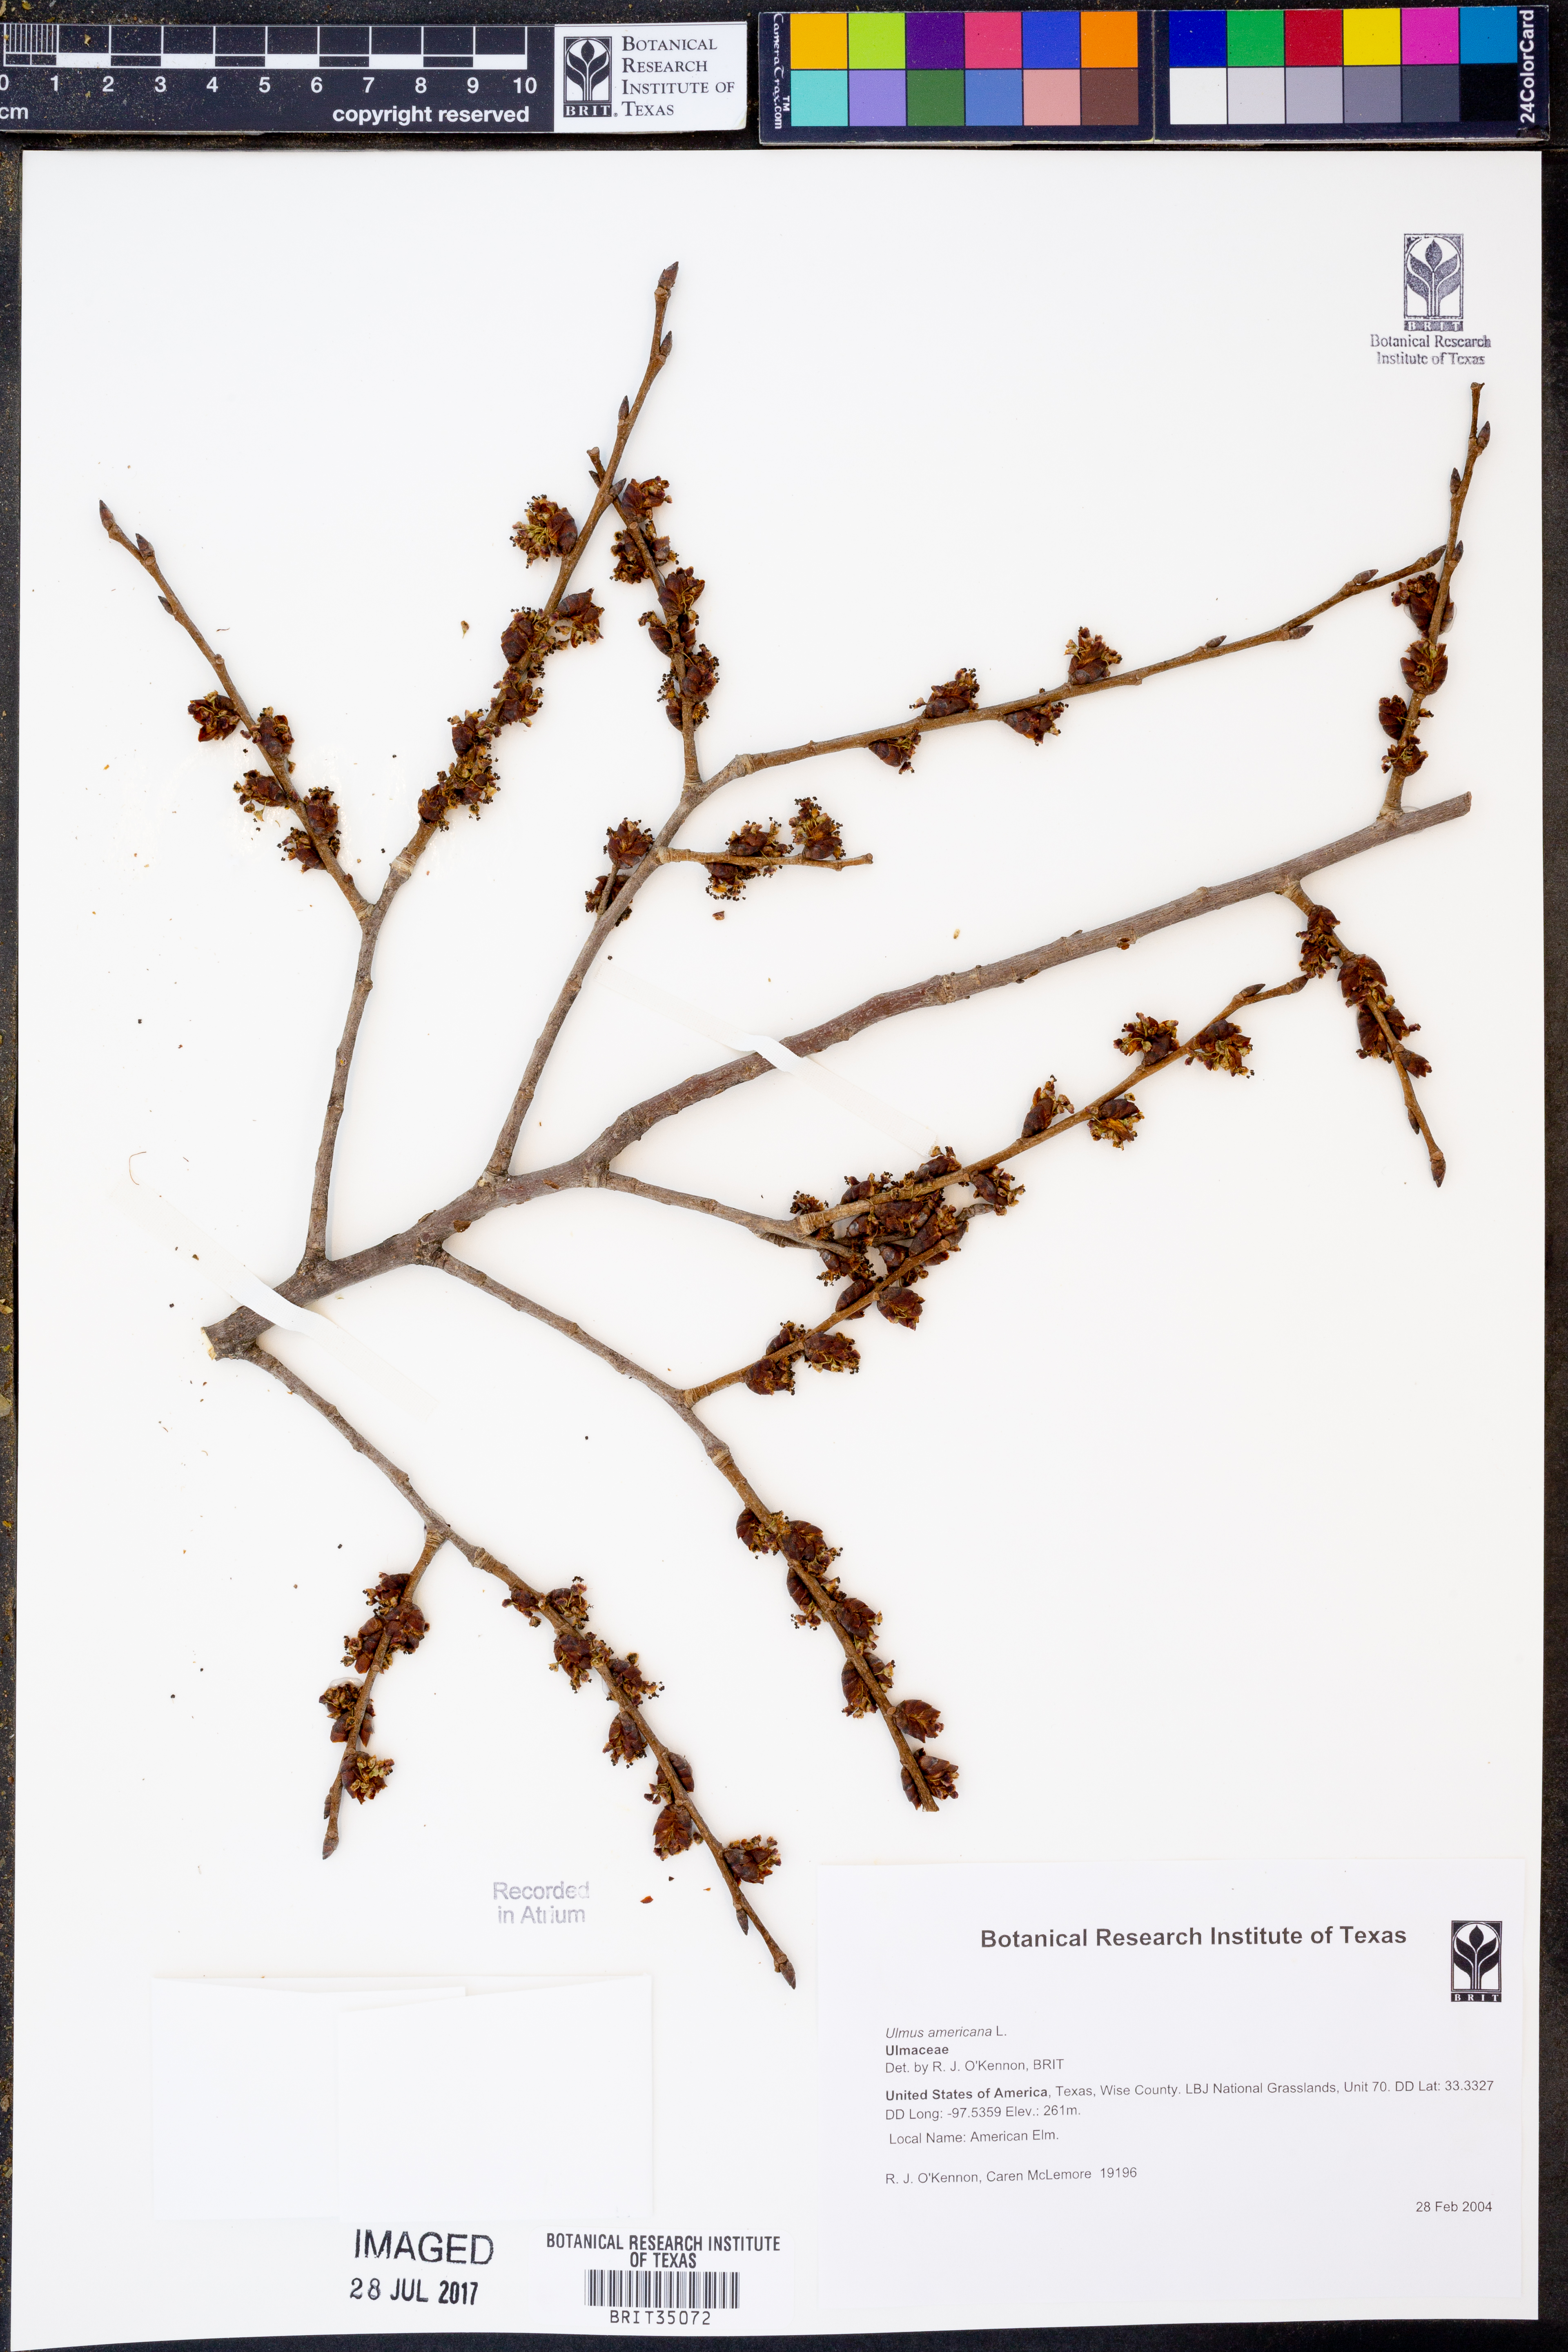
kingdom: Plantae
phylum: Tracheophyta
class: Magnoliopsida
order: Rosales
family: Ulmaceae
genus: Ulmus
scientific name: Ulmus americana
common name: American elm
